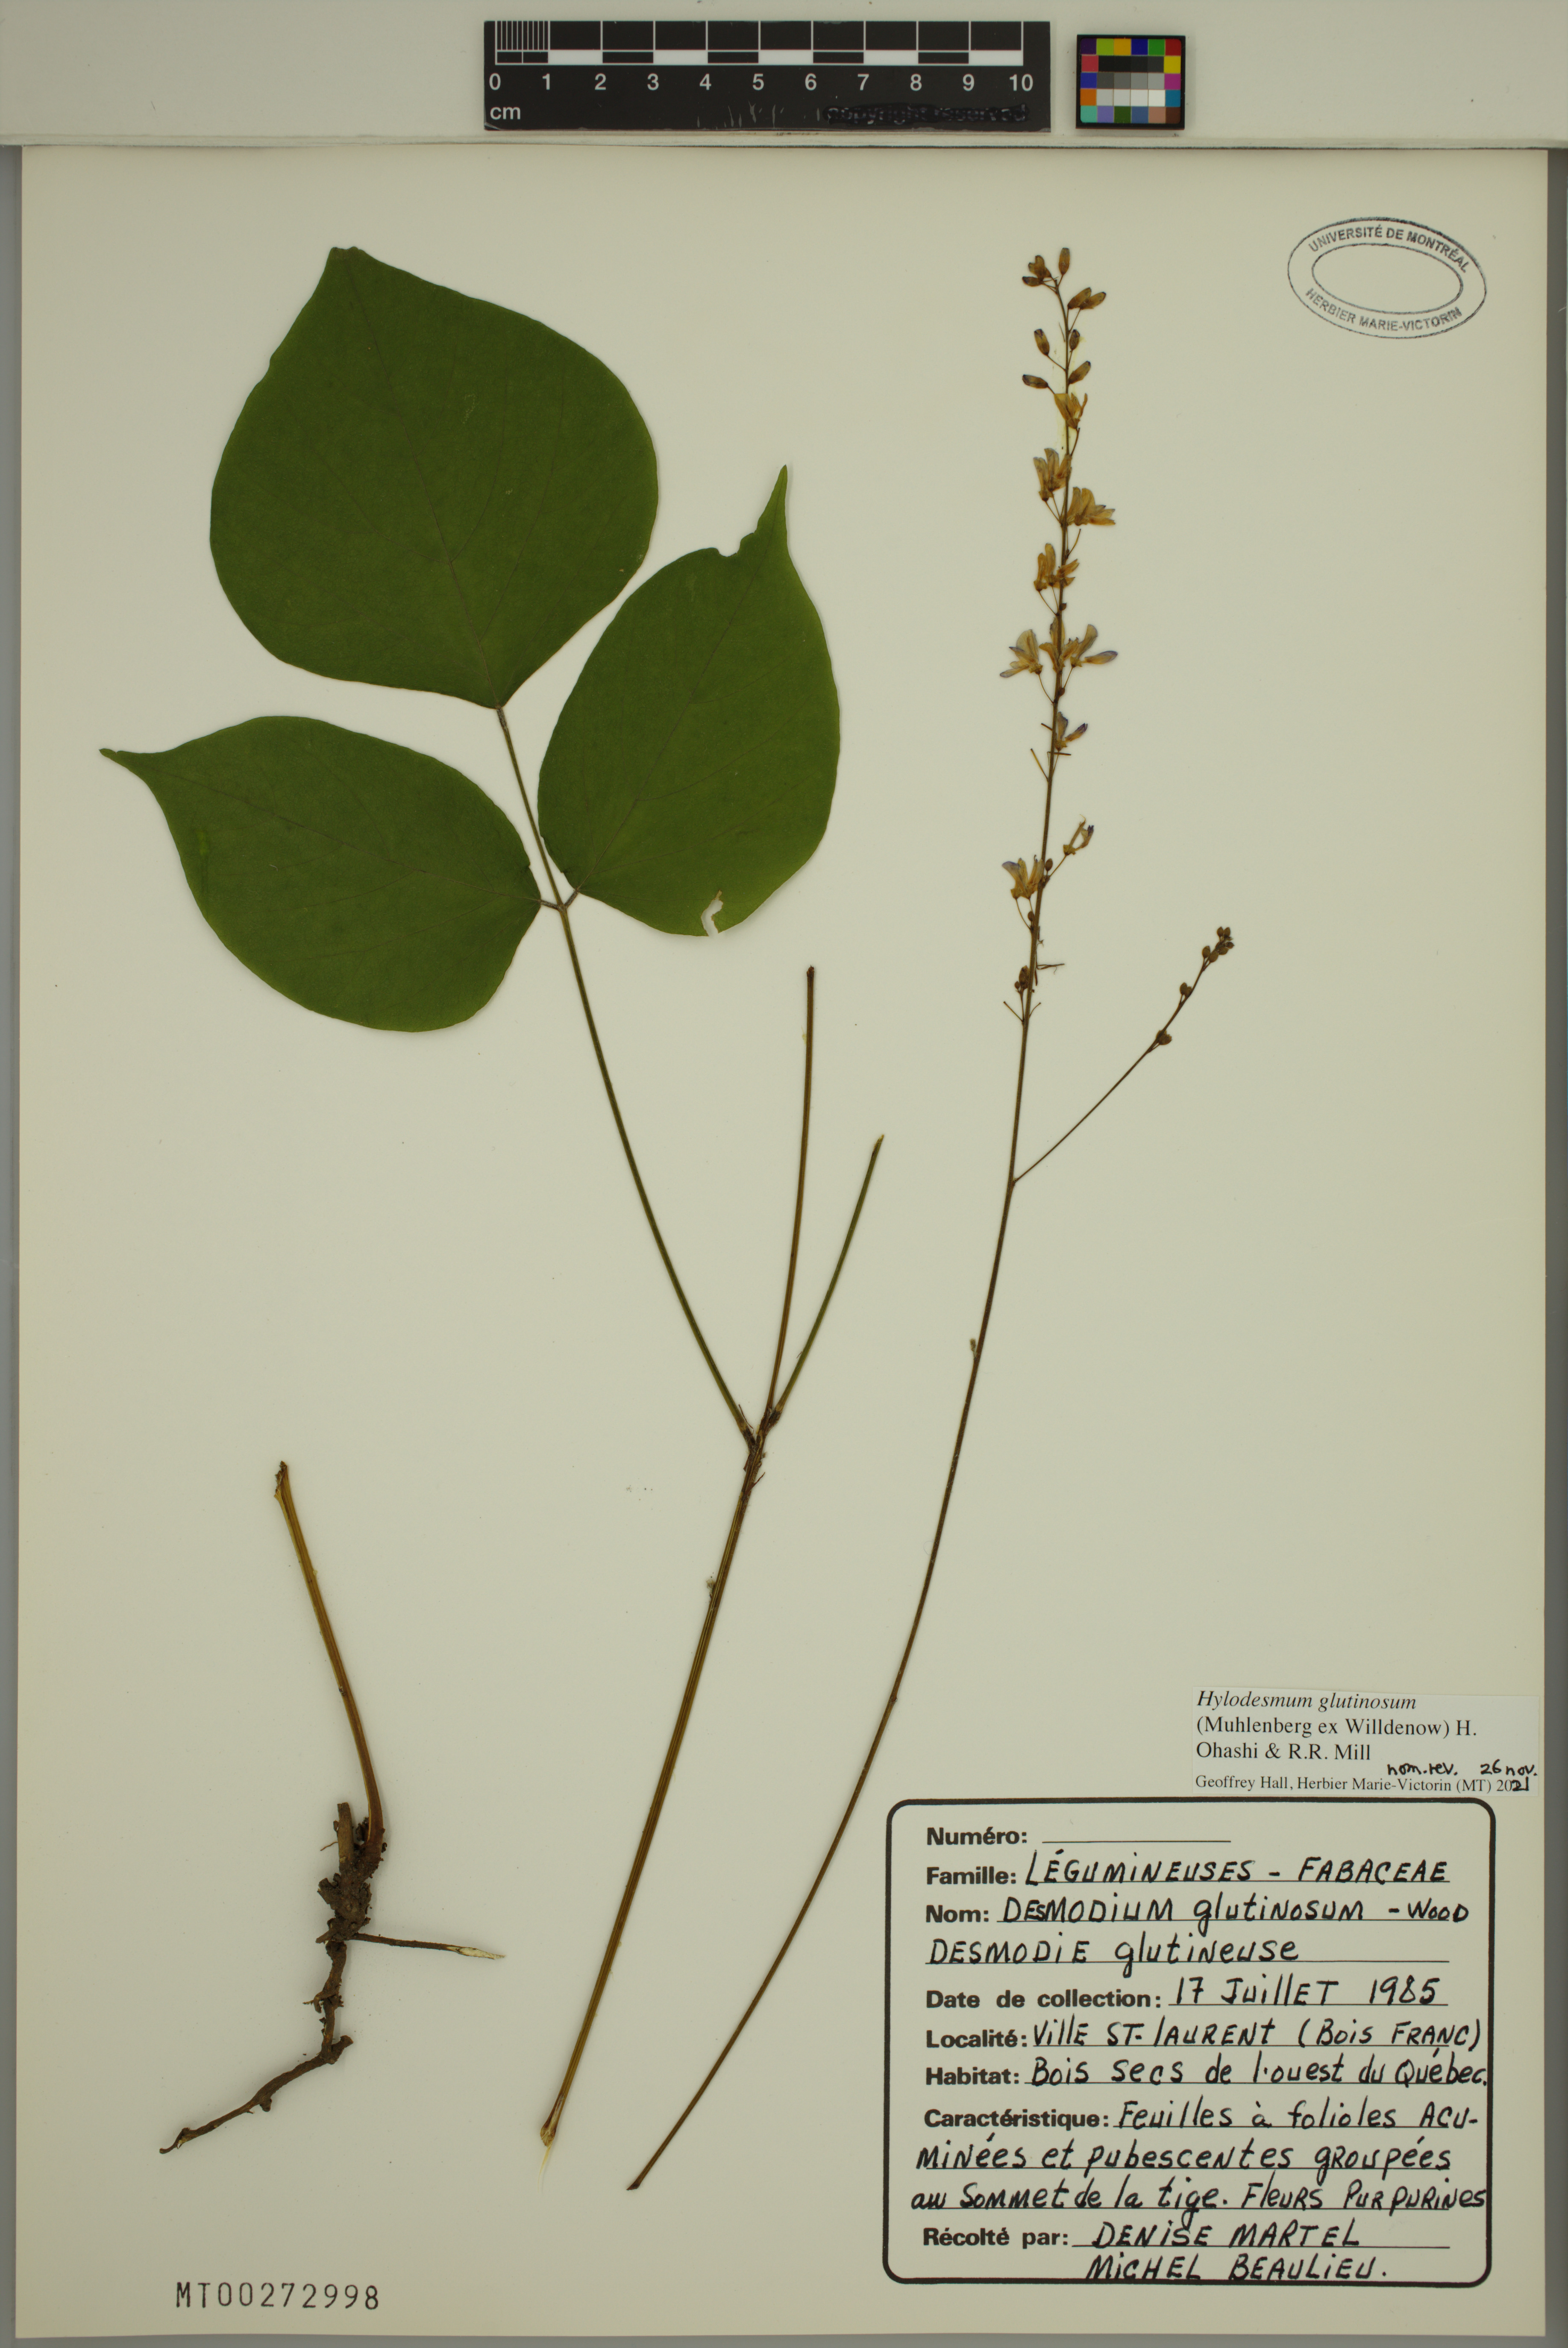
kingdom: Plantae
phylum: Tracheophyta
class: Magnoliopsida
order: Fabales
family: Fabaceae
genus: Hylodesmum
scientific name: Hylodesmum glutinosum
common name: Clustered-leaved tick-trefoil
